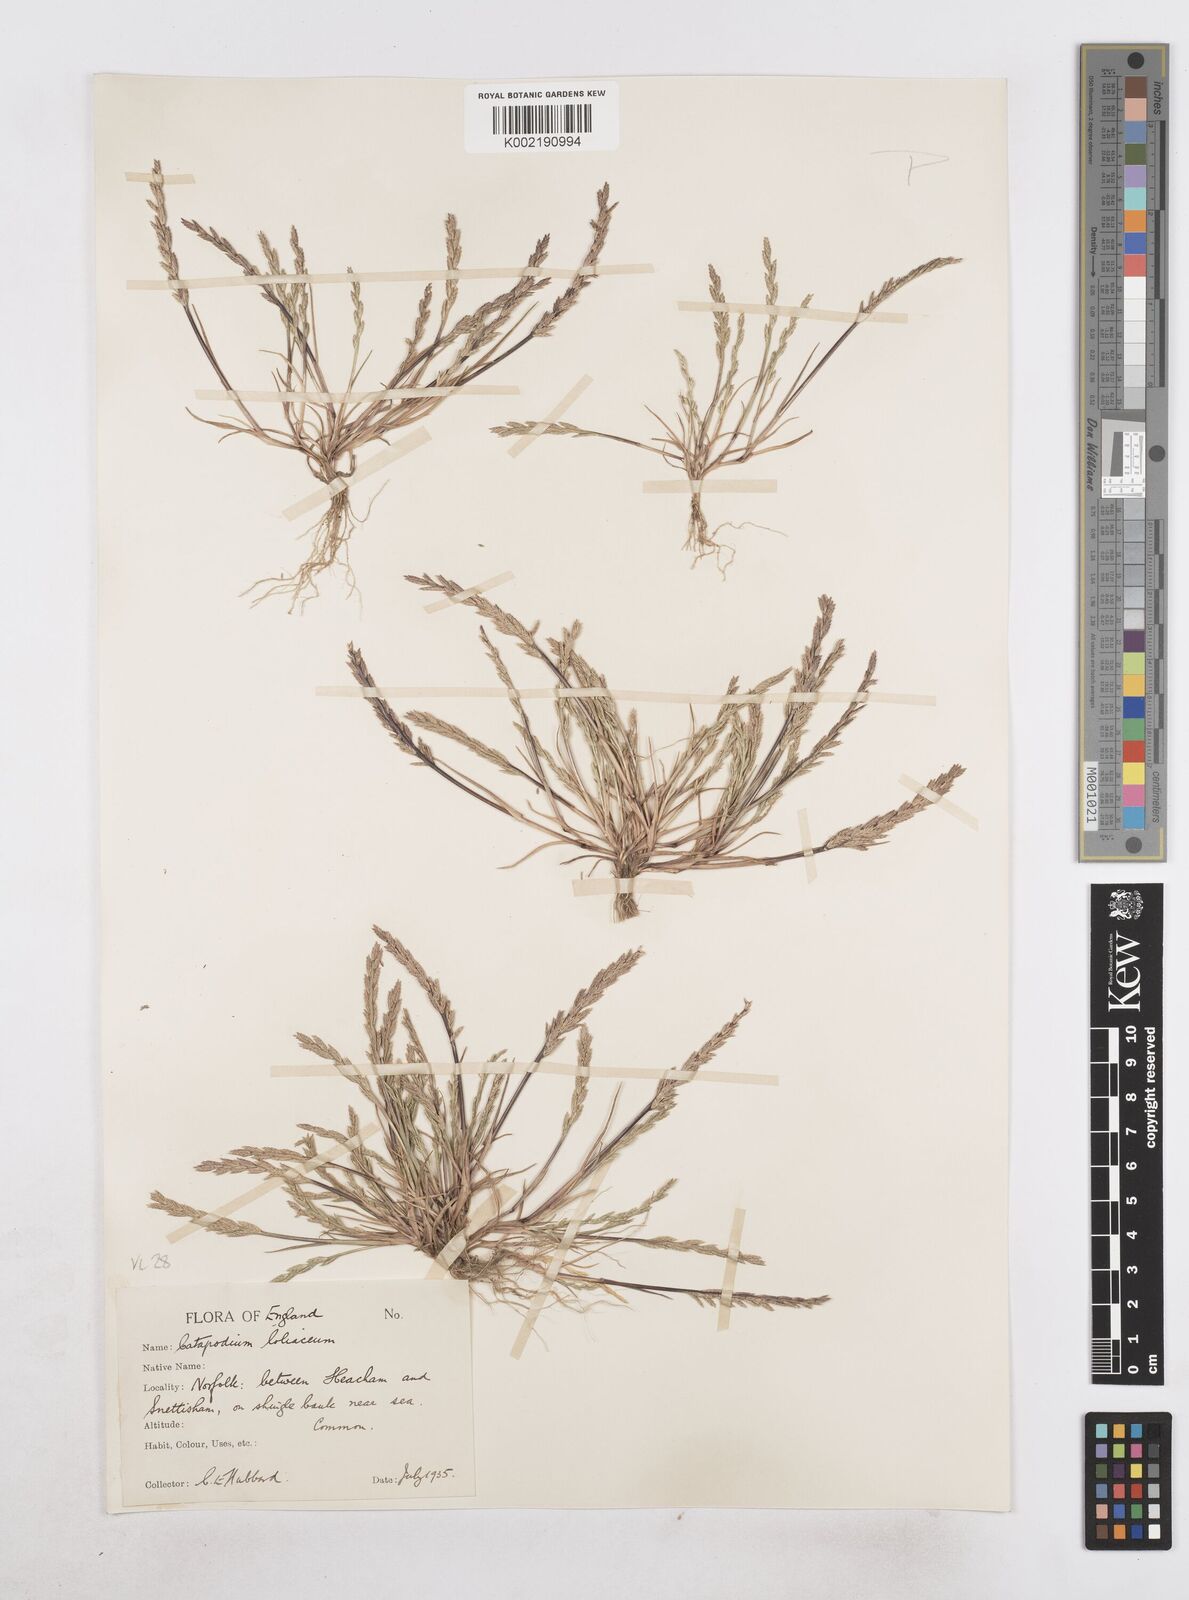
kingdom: Plantae
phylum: Tracheophyta
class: Liliopsida
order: Poales
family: Poaceae
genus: Catapodium
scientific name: Catapodium marinum
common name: Sea fern-grass
